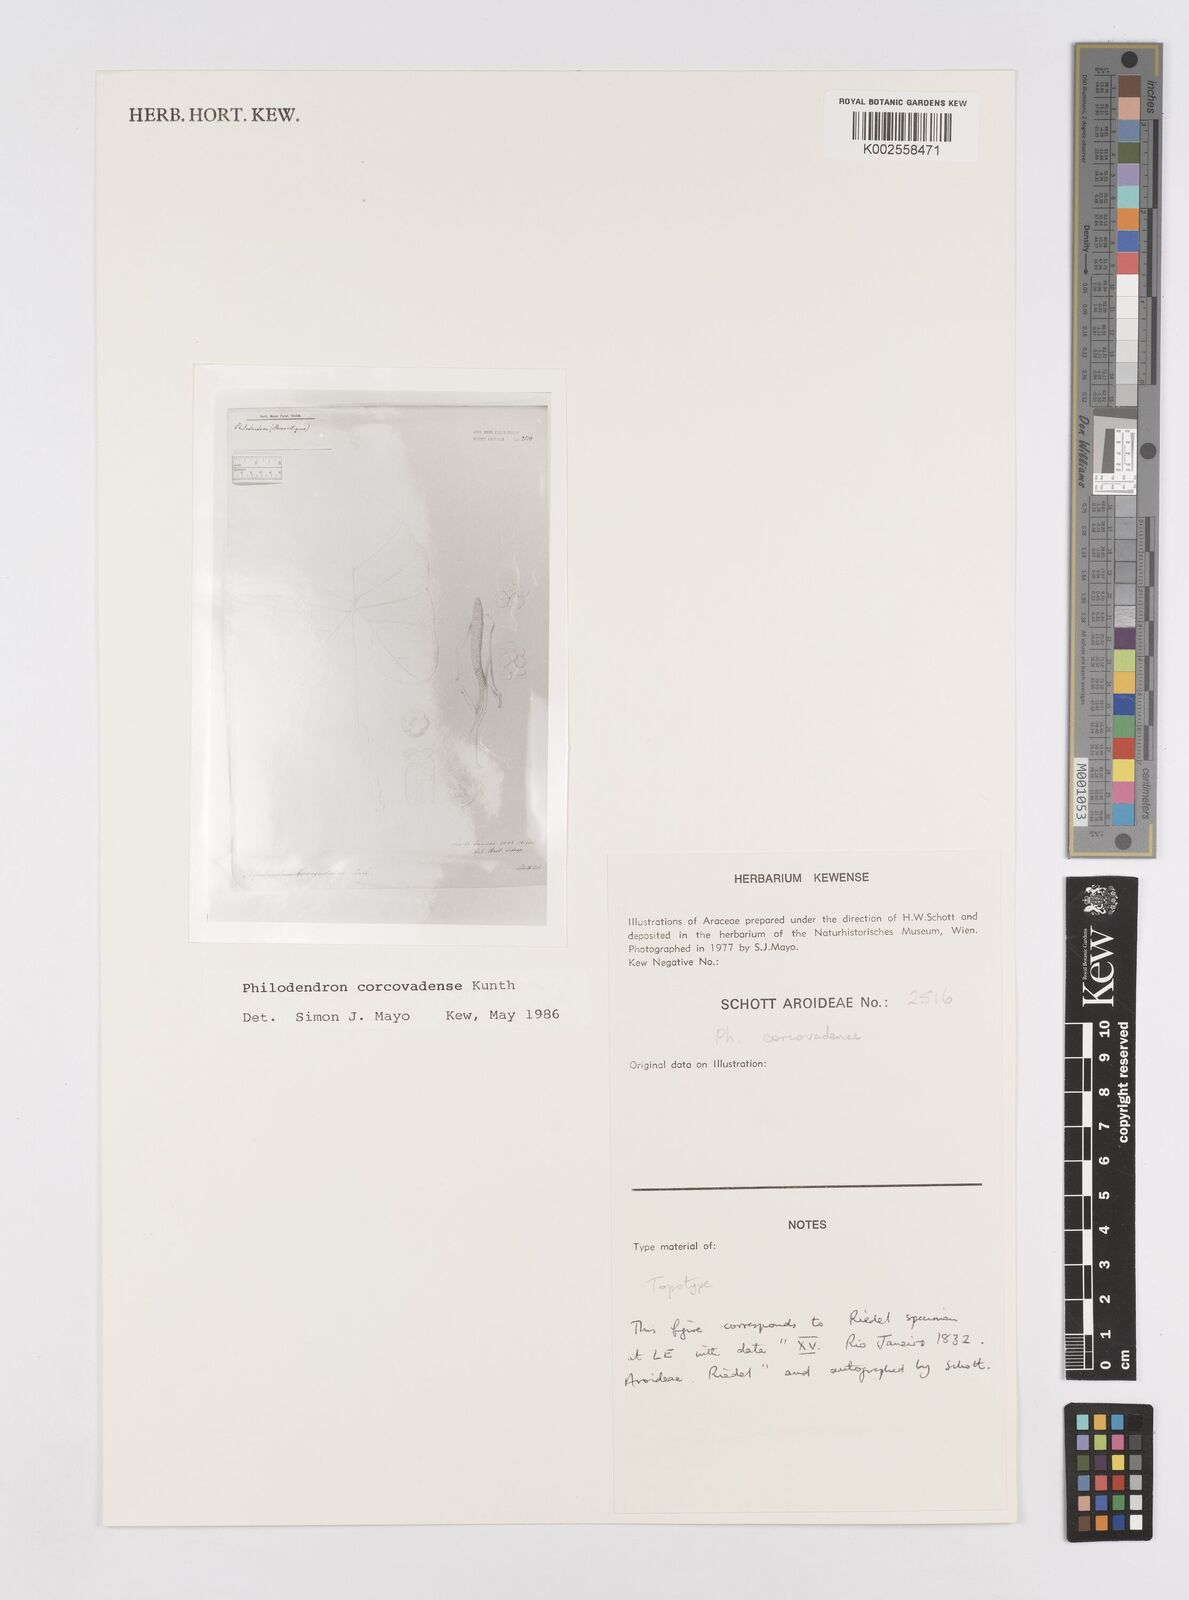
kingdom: Plantae
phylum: Tracheophyta
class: Liliopsida
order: Alismatales
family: Araceae
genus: Thaumatophyllum
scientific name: Thaumatophyllum corcovadense
